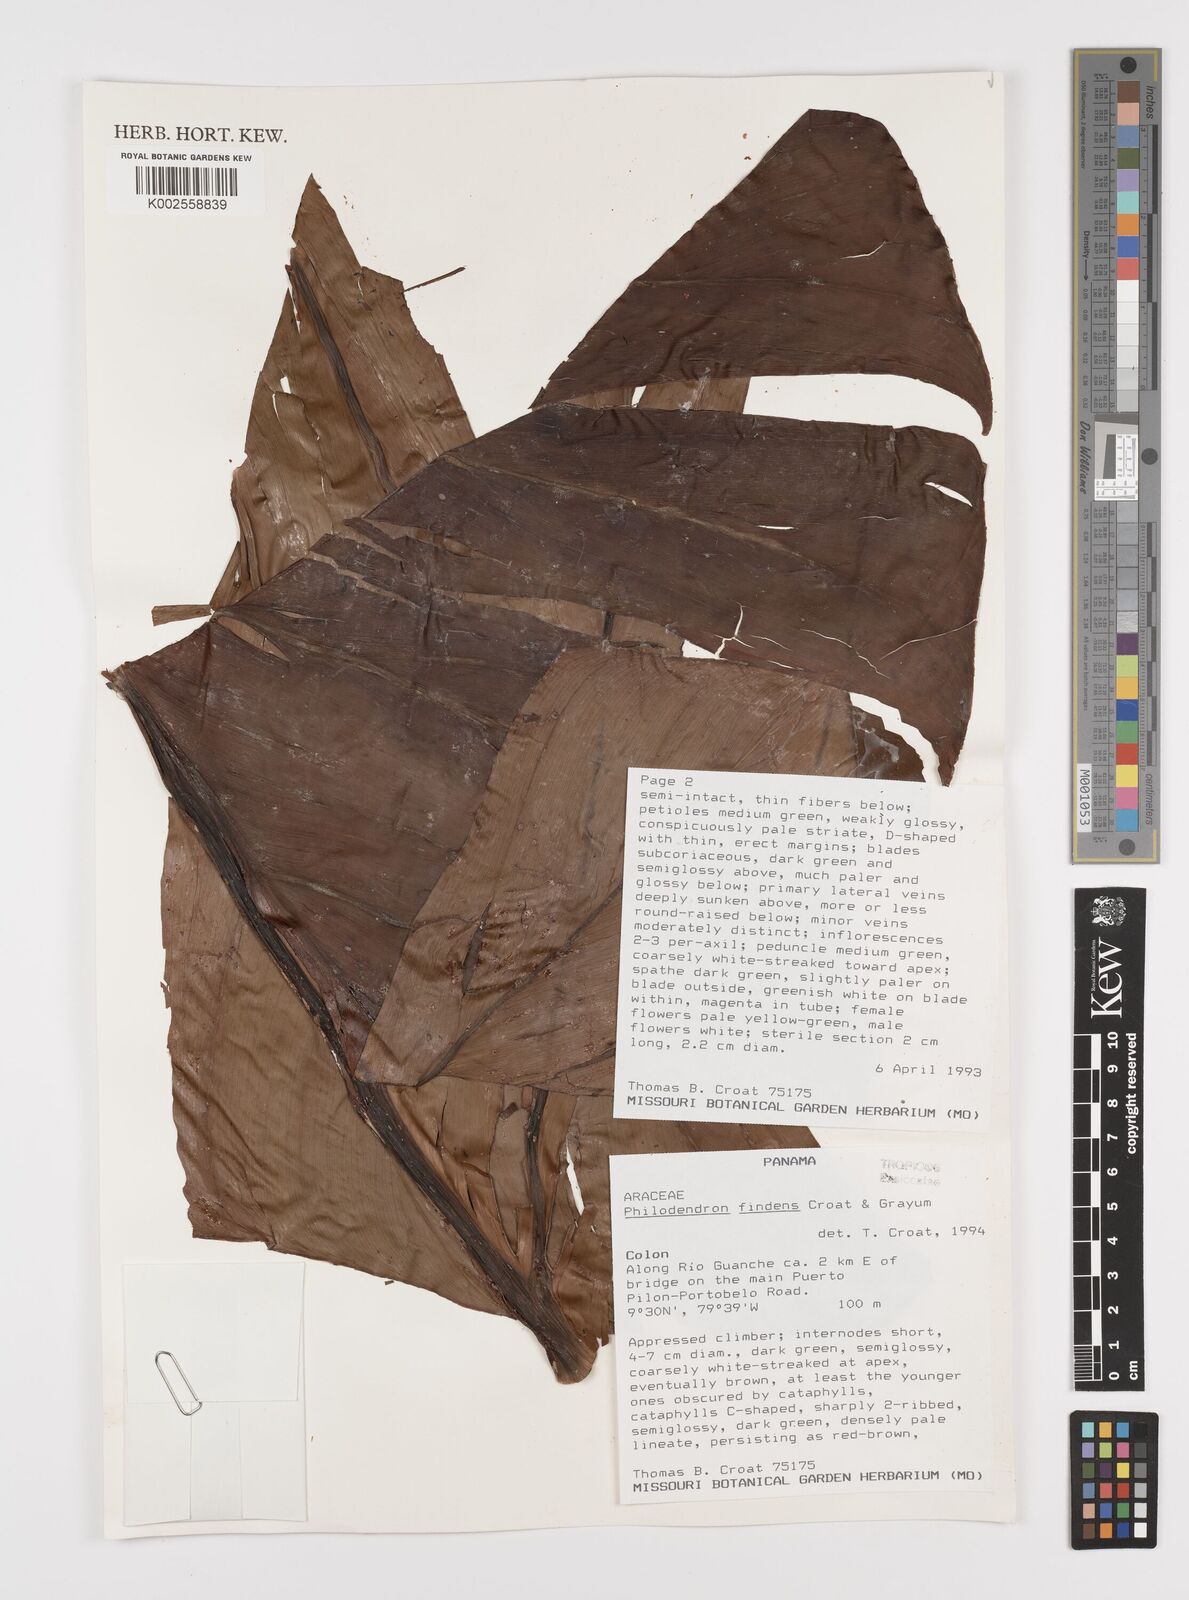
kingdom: Plantae
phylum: Tracheophyta
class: Liliopsida
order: Alismatales
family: Araceae
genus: Philodendron
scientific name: Philodendron findens
